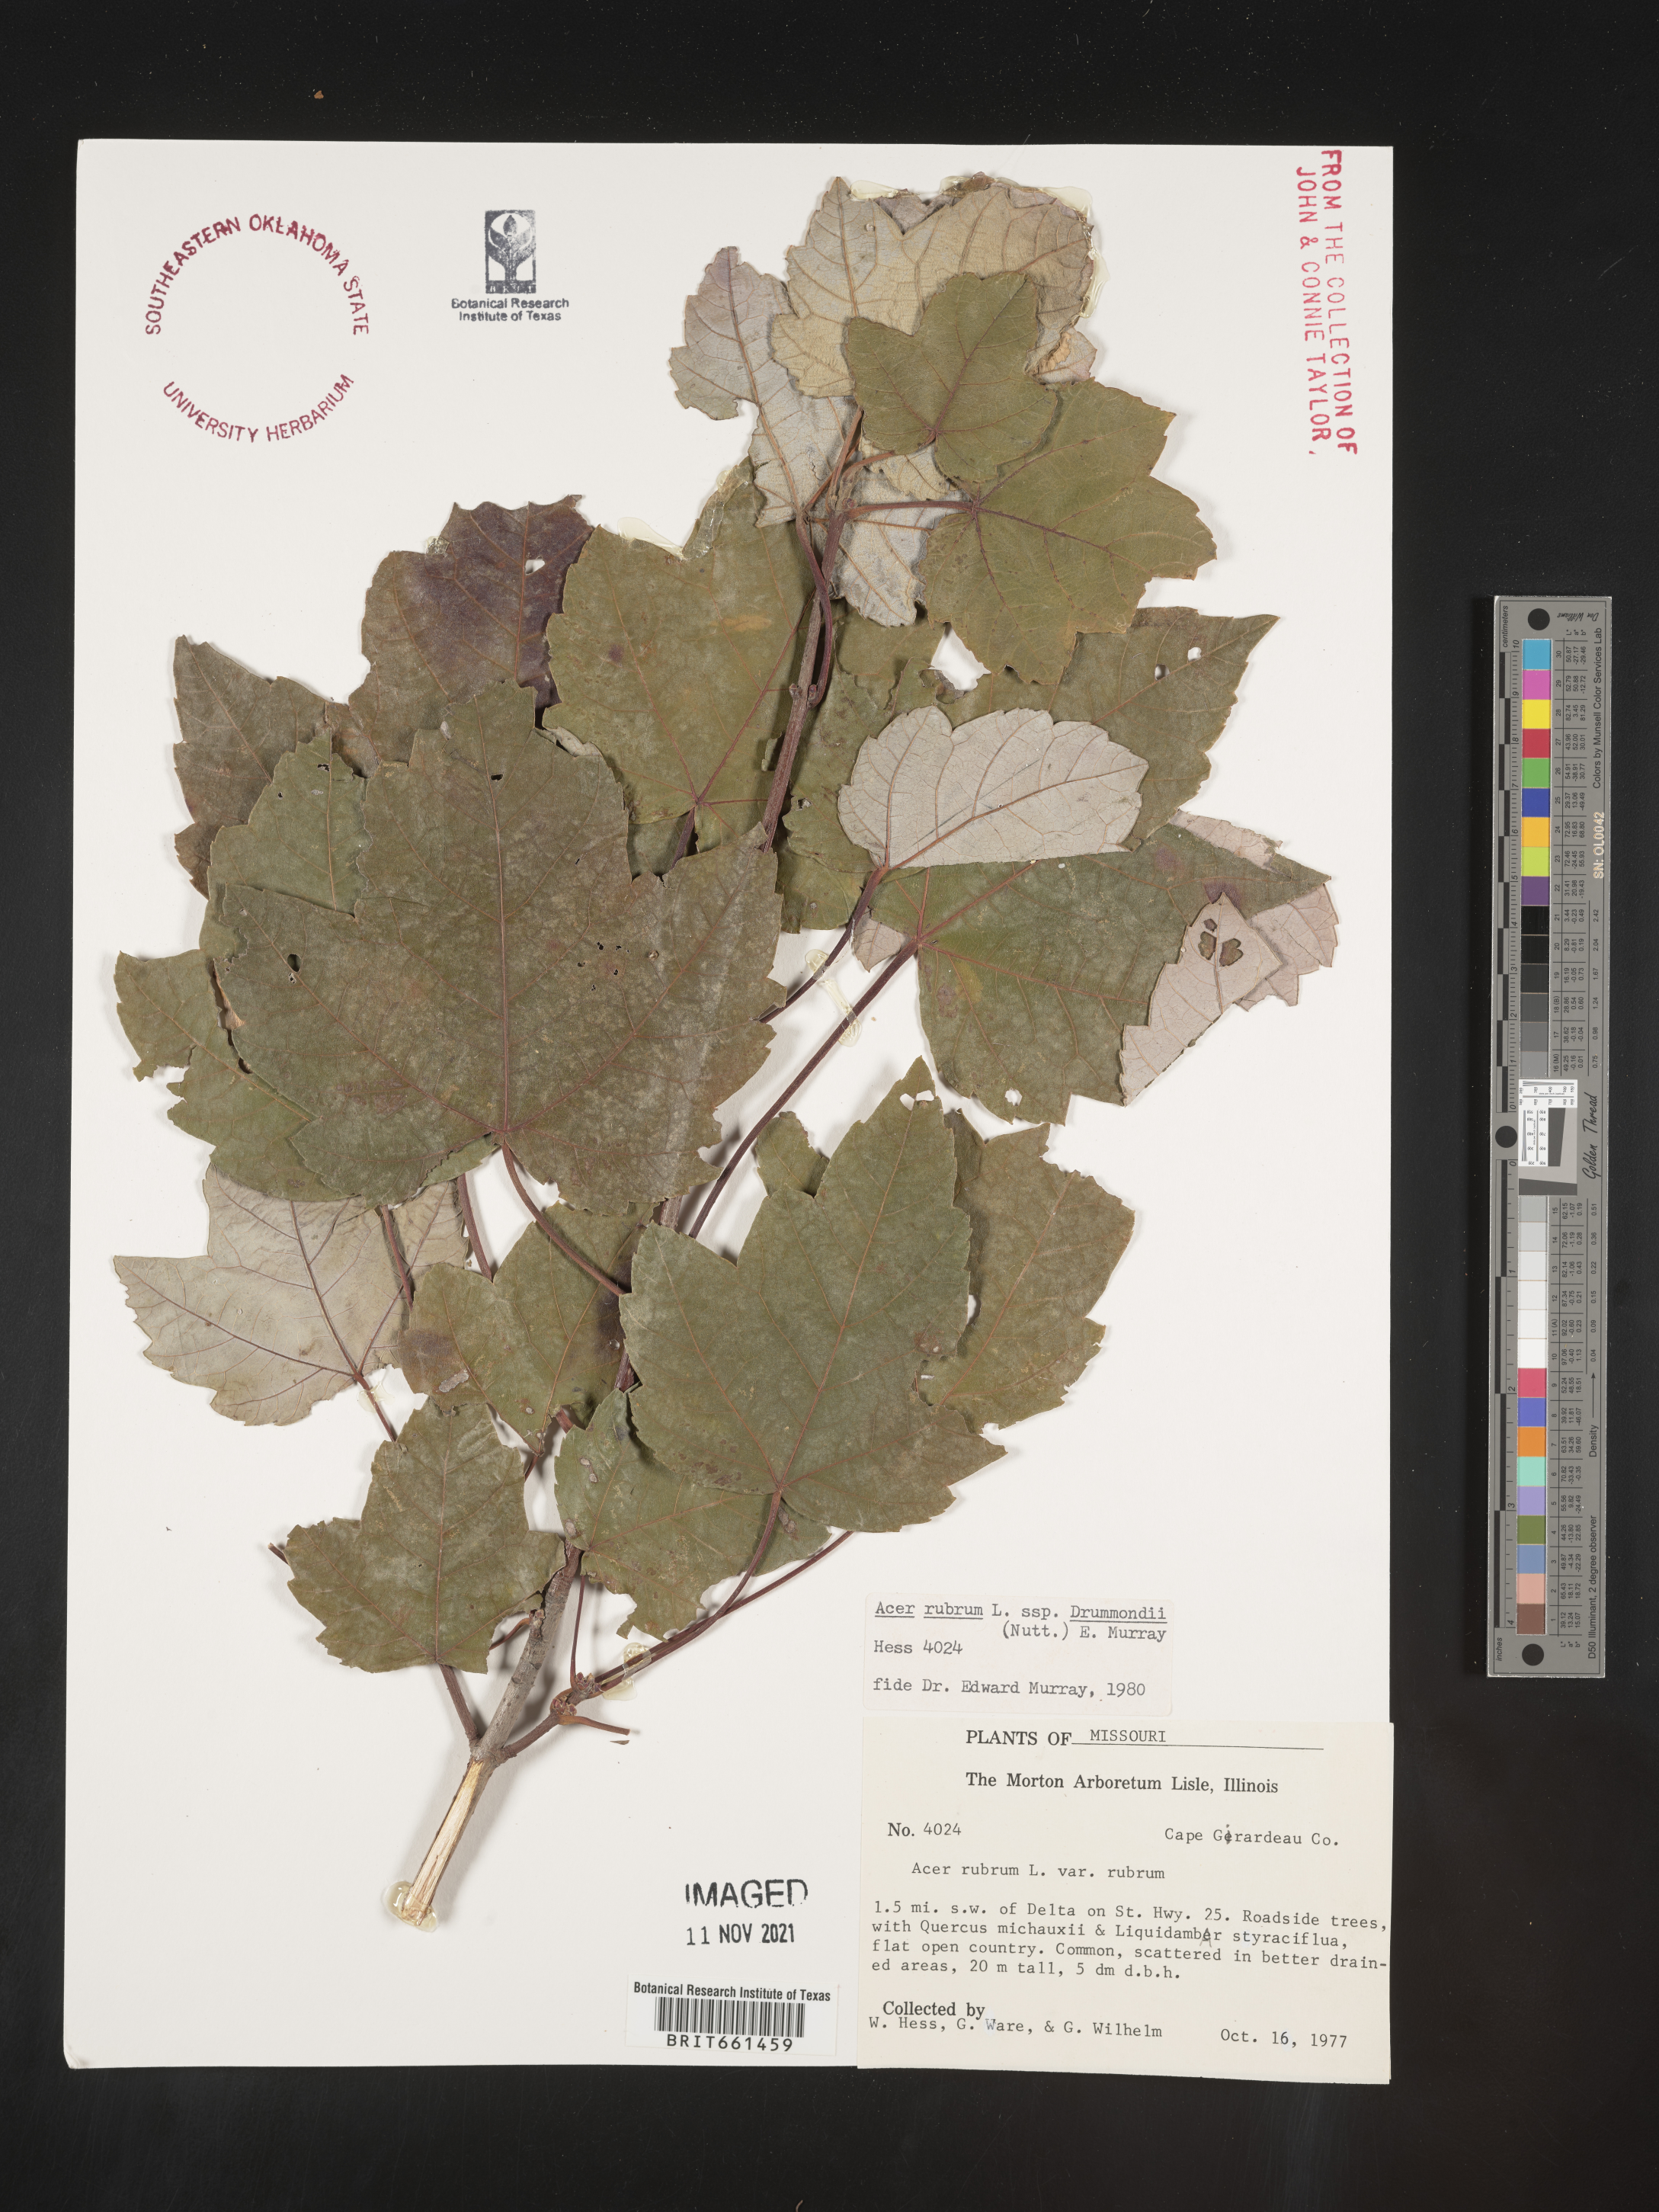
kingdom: Plantae
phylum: Tracheophyta
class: Magnoliopsida
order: Sapindales
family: Sapindaceae
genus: Acer
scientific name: Acer rubrum
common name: Red maple
